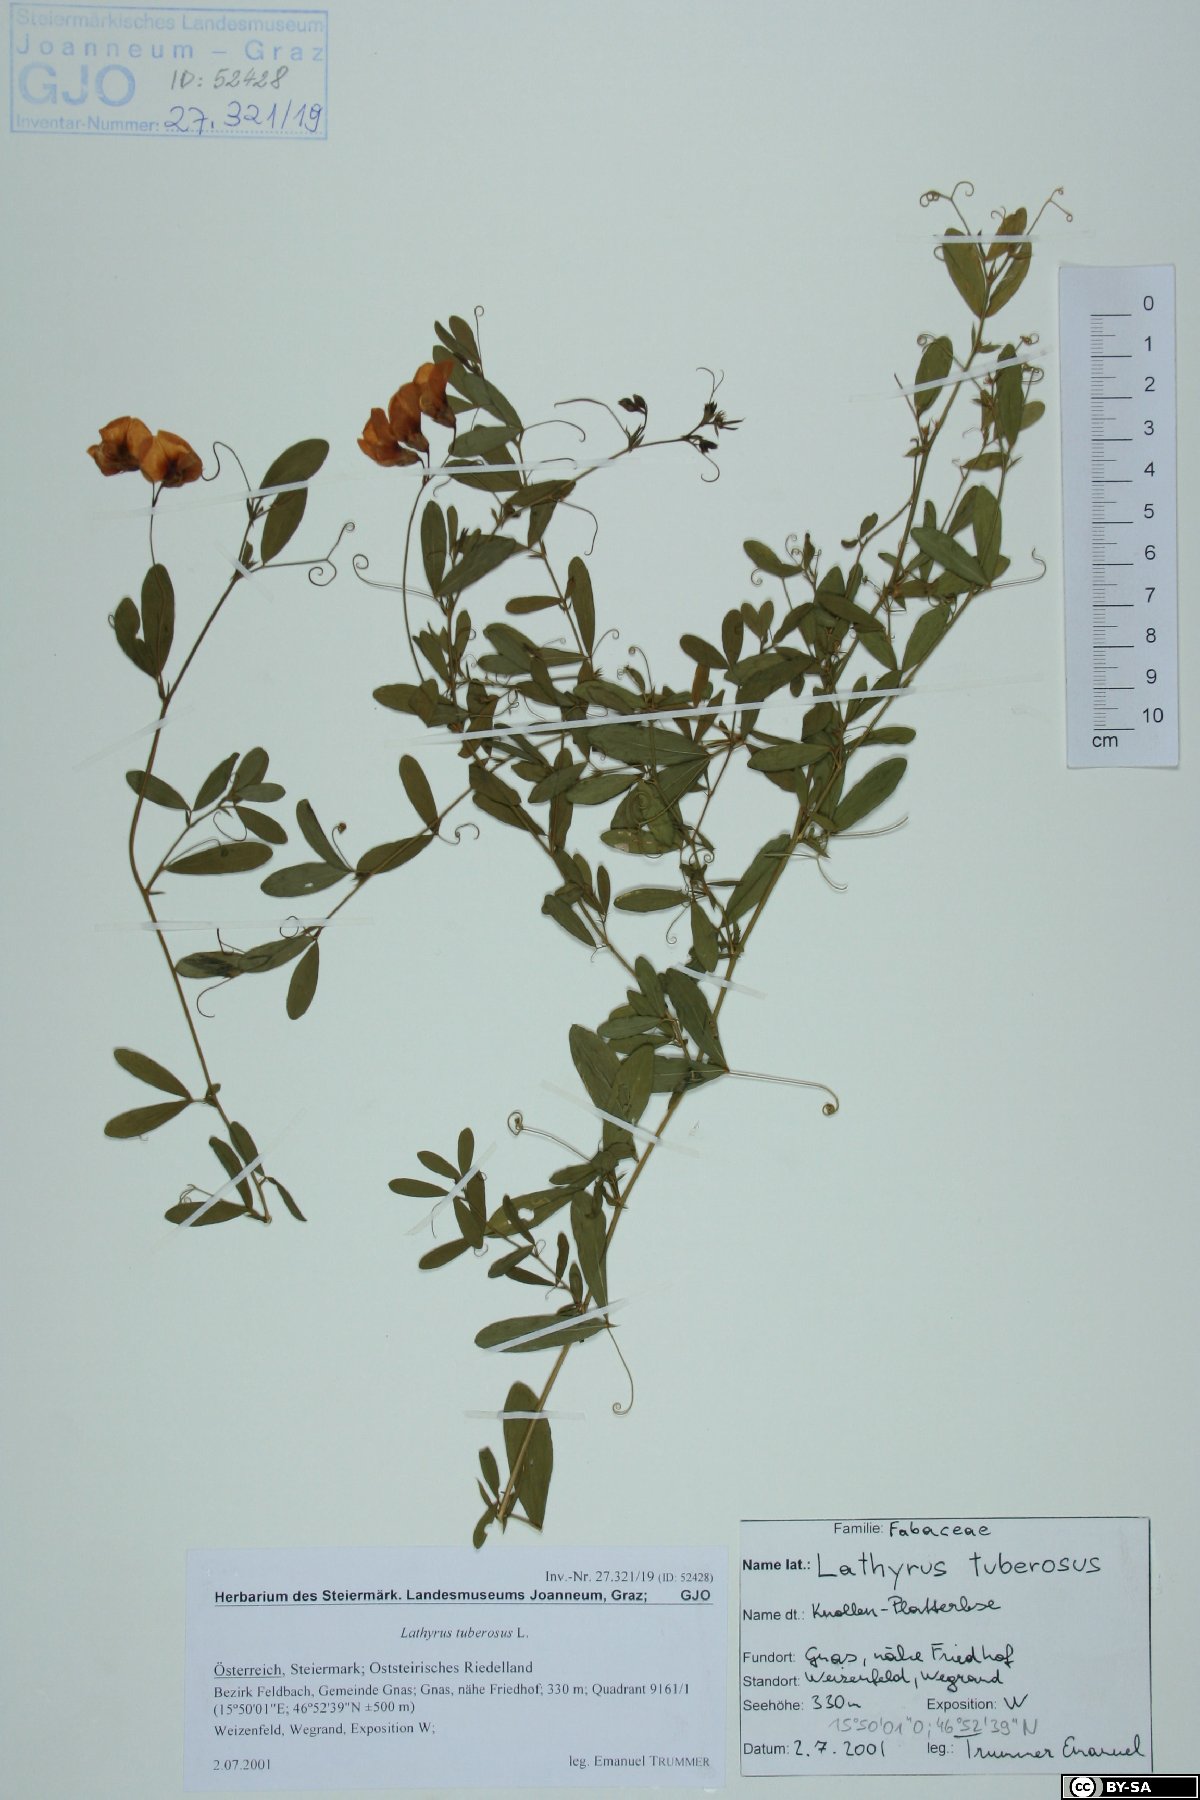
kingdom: Plantae
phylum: Tracheophyta
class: Magnoliopsida
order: Fabales
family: Fabaceae
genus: Lathyrus
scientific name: Lathyrus tuberosus
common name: Tuberous pea
